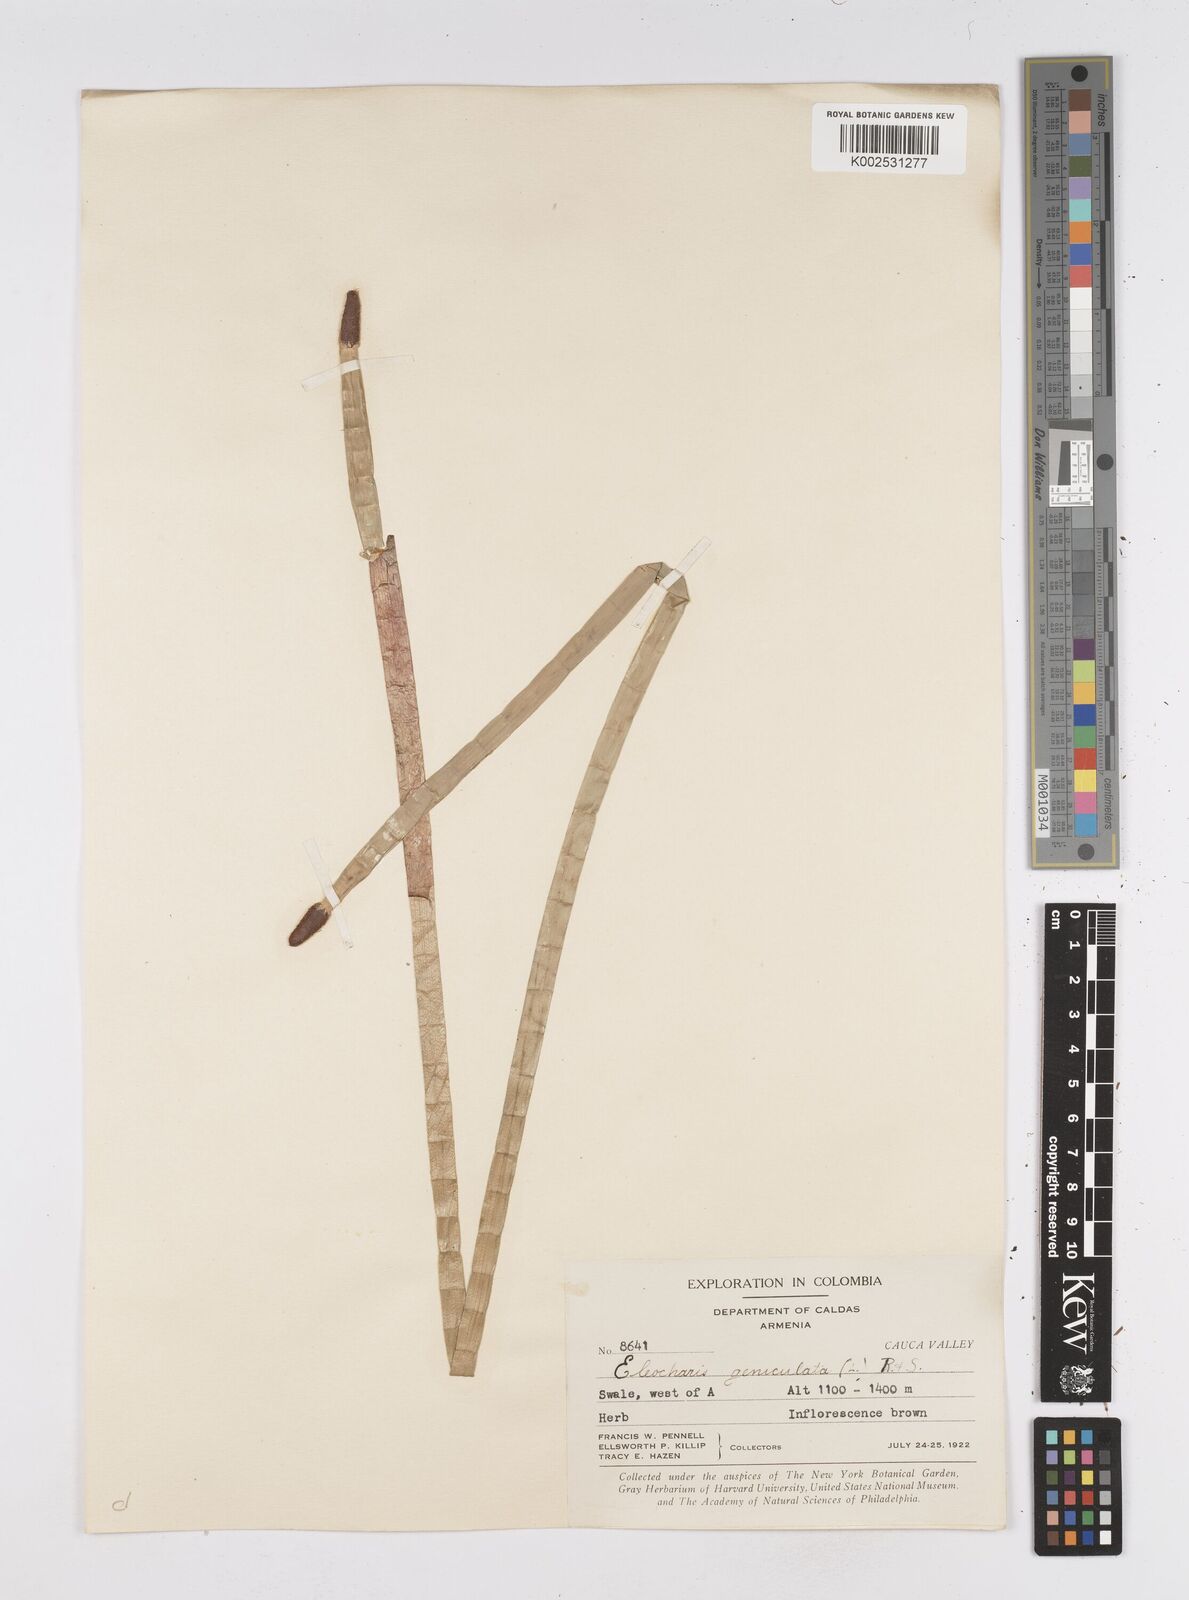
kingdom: Plantae
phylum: Tracheophyta
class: Liliopsida
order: Poales
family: Cyperaceae
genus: Eleocharis
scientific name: Eleocharis elegans
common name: Elegant spike-rush
